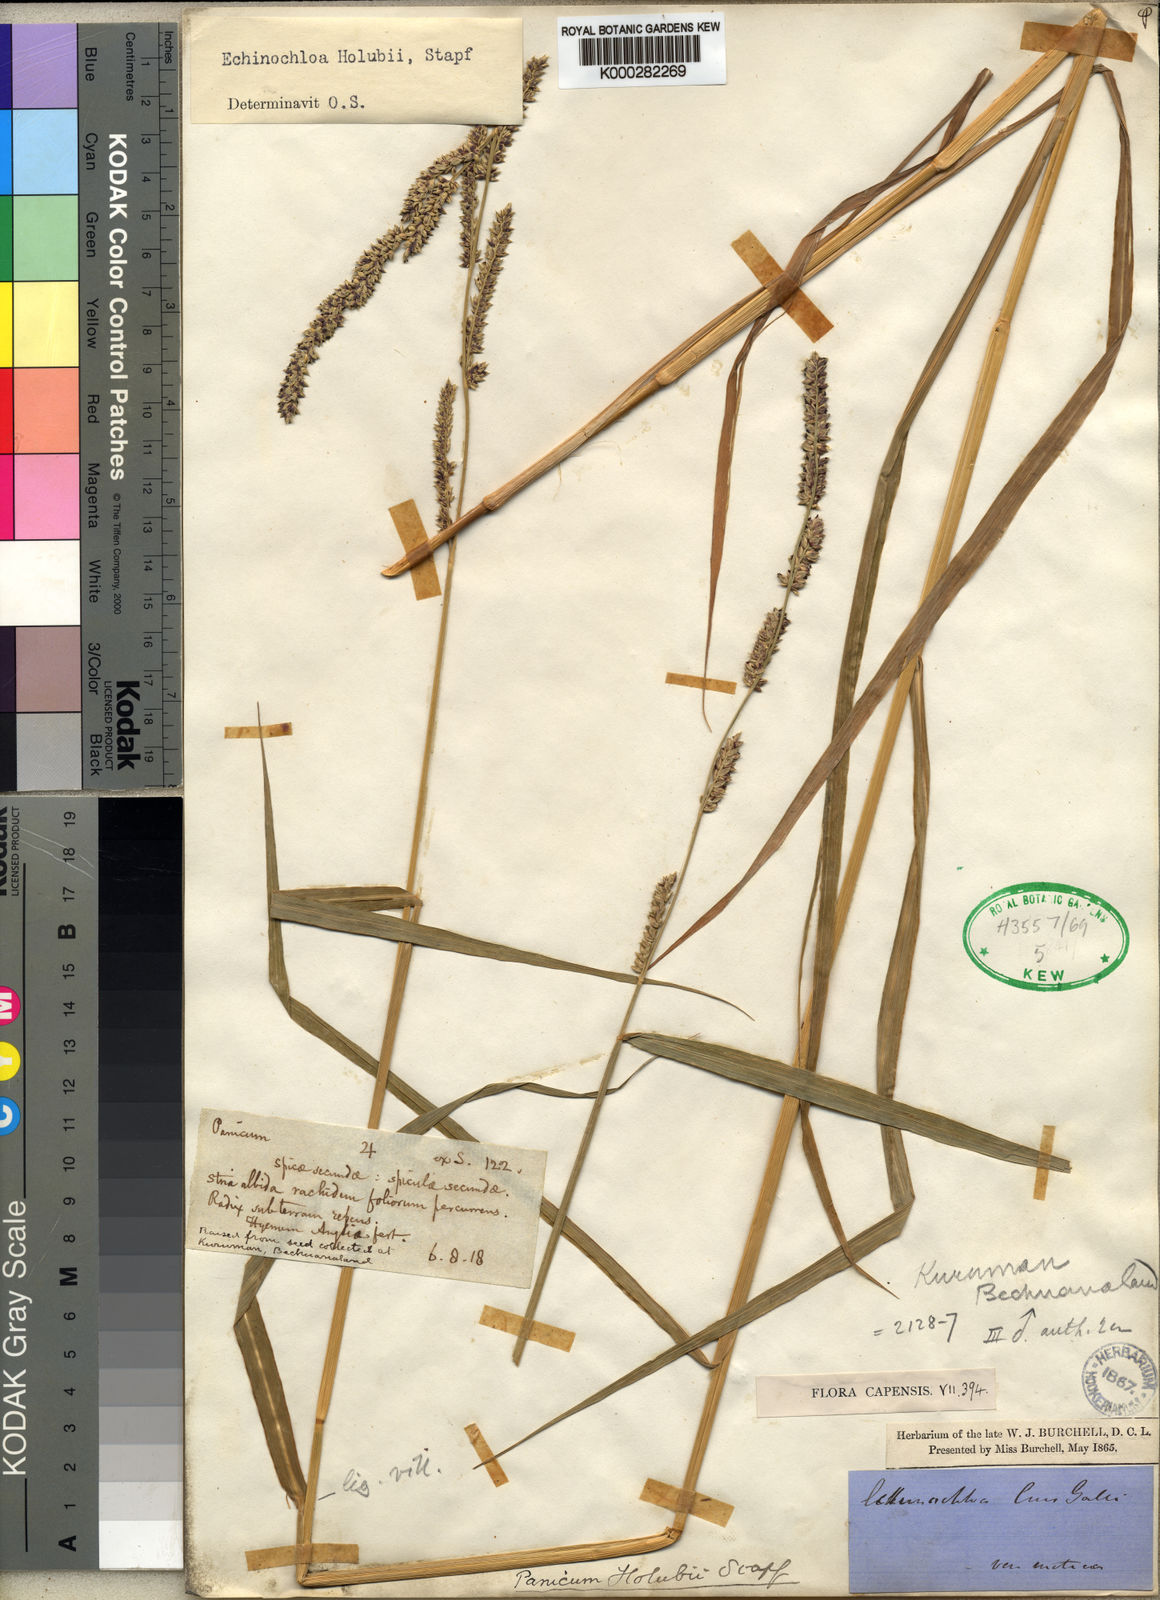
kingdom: Plantae
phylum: Tracheophyta
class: Liliopsida
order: Poales
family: Poaceae
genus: Echinochloa
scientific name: Echinochloa pyramidalis
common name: Antelope grass
